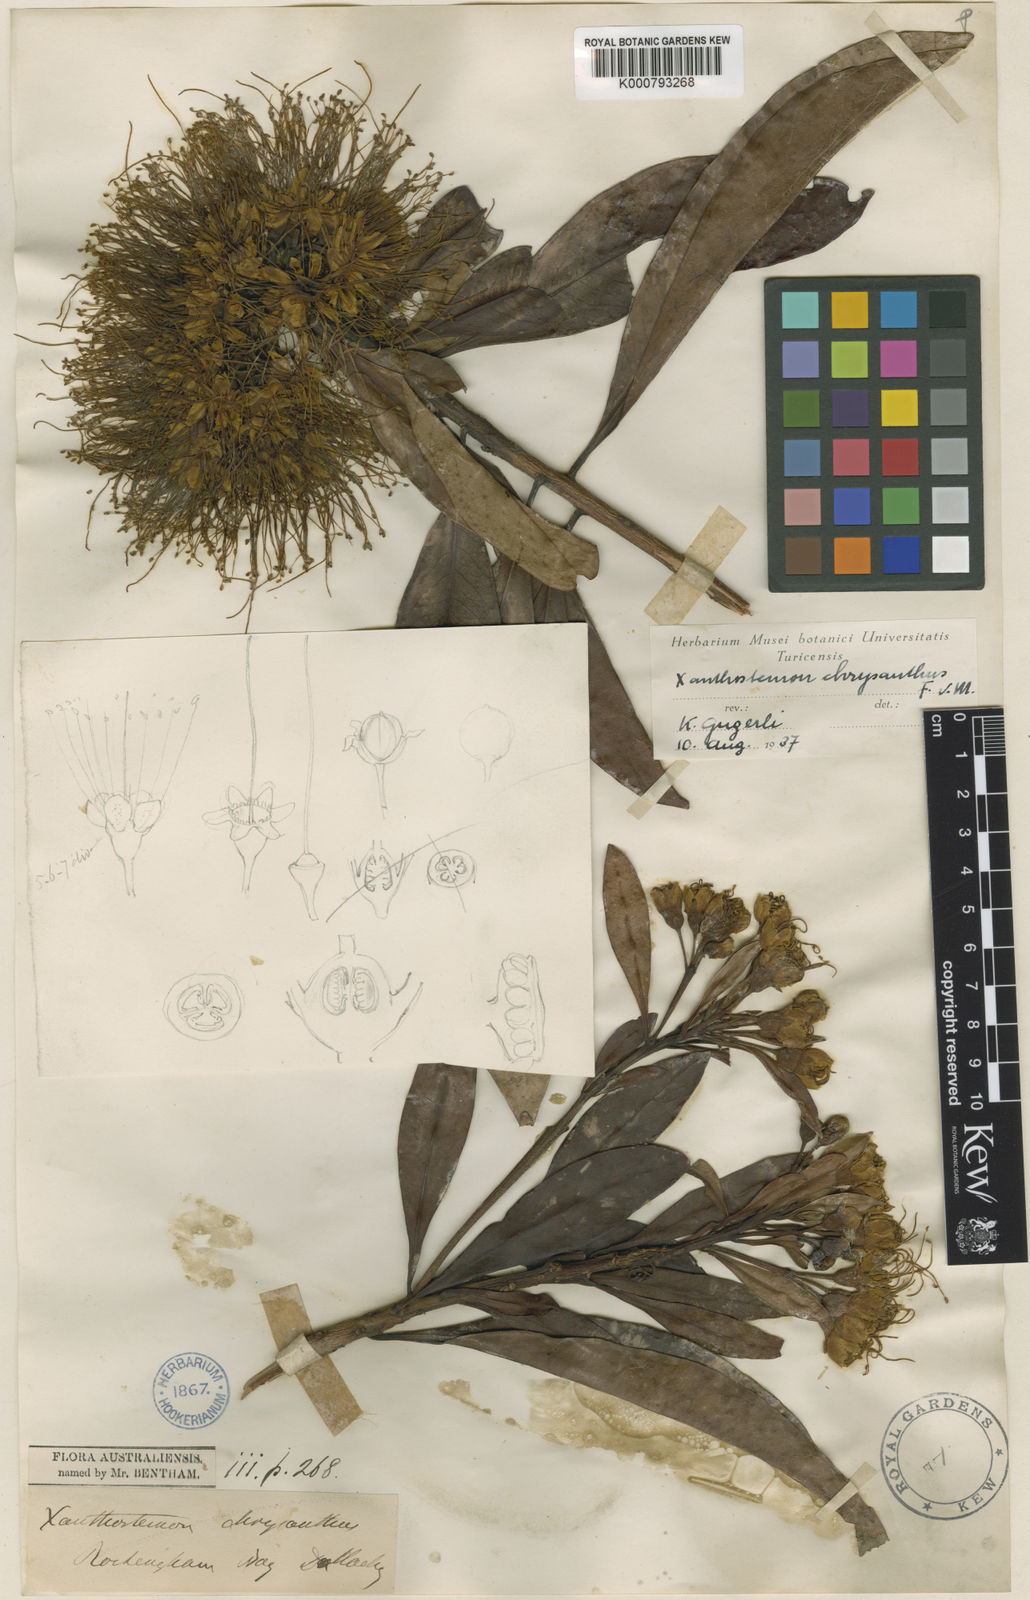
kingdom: Plantae
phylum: Tracheophyta
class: Magnoliopsida
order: Myrtales
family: Myrtaceae
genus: Xanthostemon
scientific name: Xanthostemon chrysanthus
